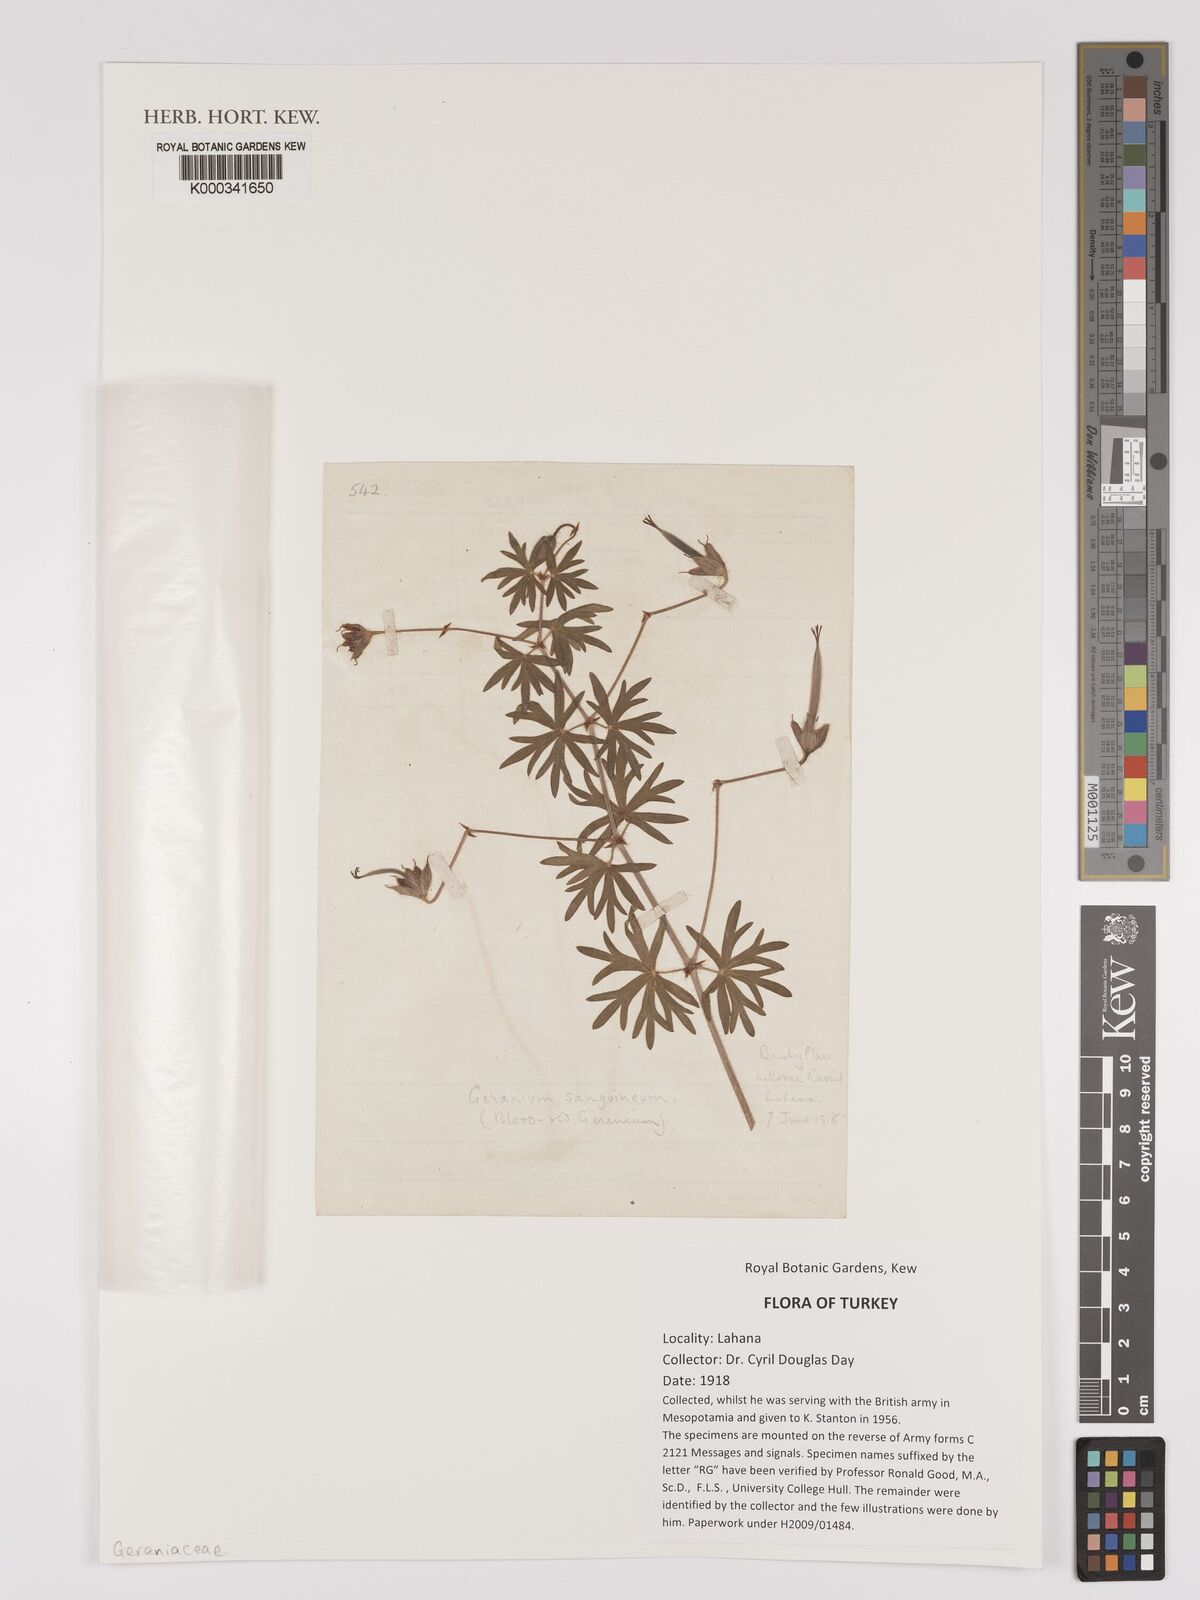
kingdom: Plantae
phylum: Tracheophyta
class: Magnoliopsida
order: Geraniales
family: Geraniaceae
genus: Geranium
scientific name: Geranium sanguineum
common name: Bloody crane's-bill
